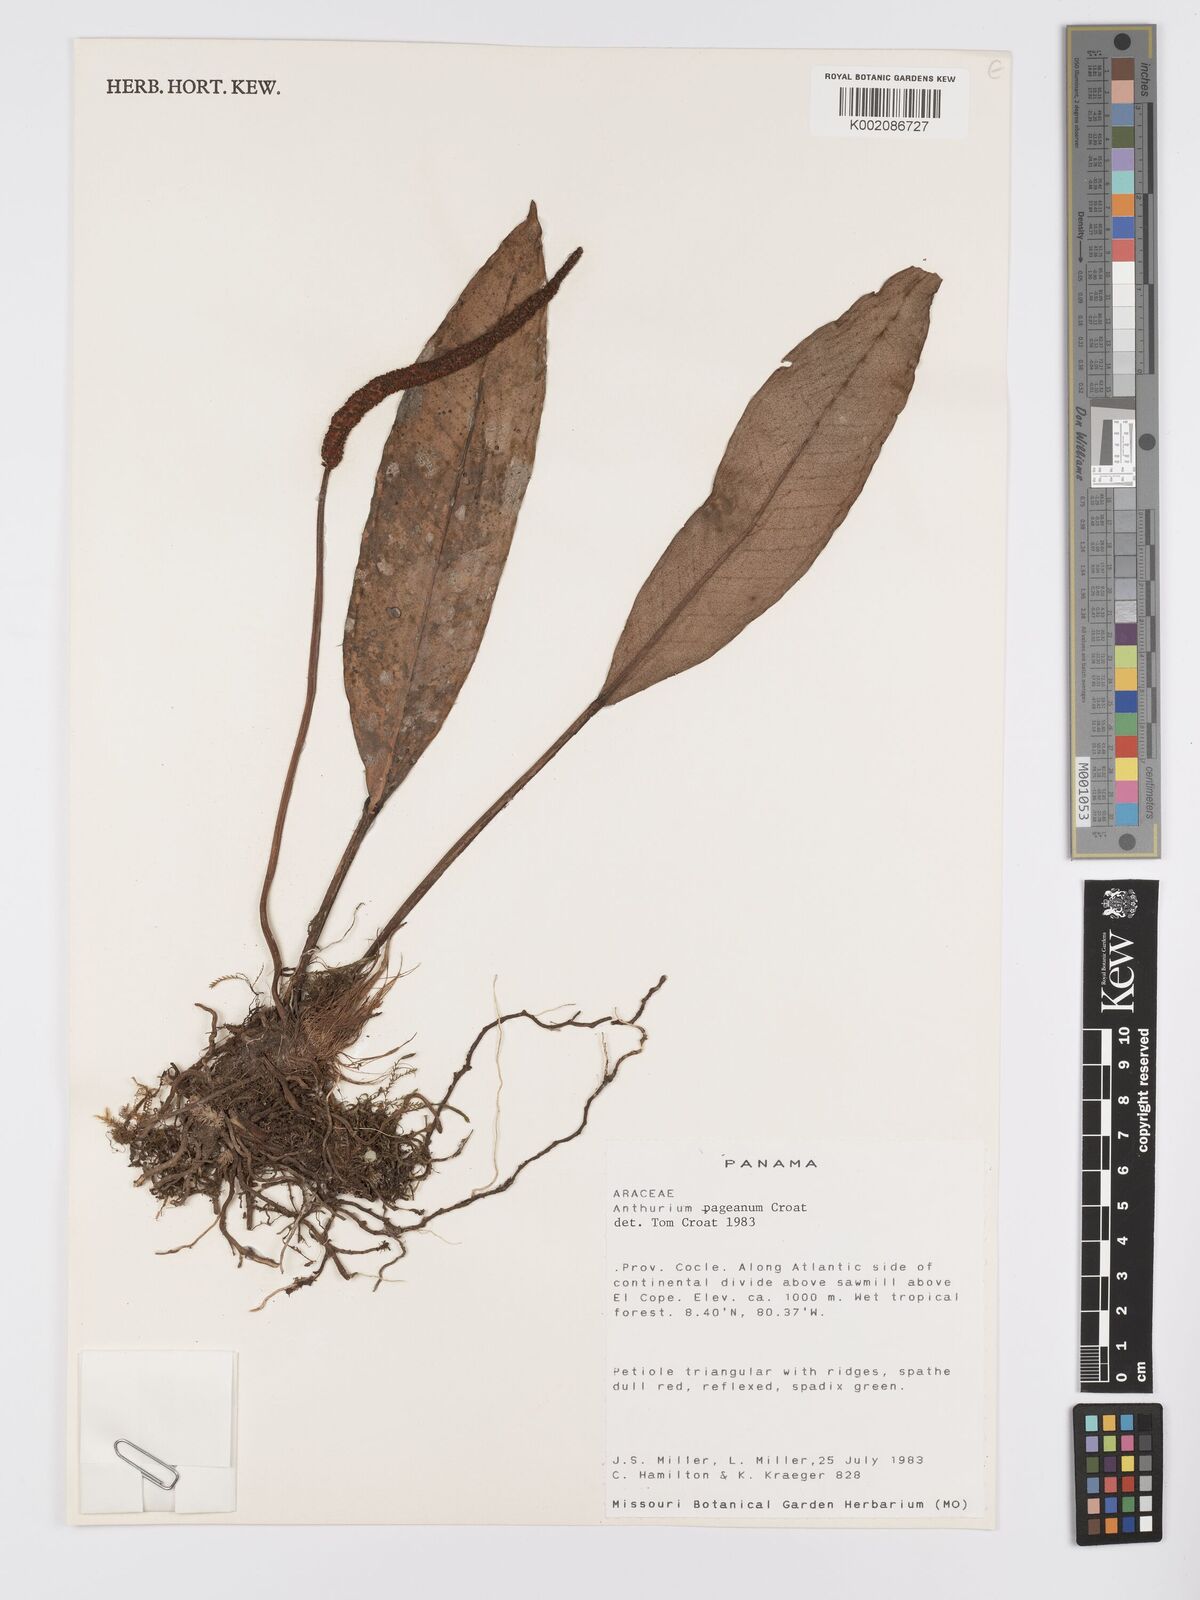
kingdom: Plantae
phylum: Tracheophyta
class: Liliopsida
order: Alismatales
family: Araceae
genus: Anthurium
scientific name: Anthurium pageanum
